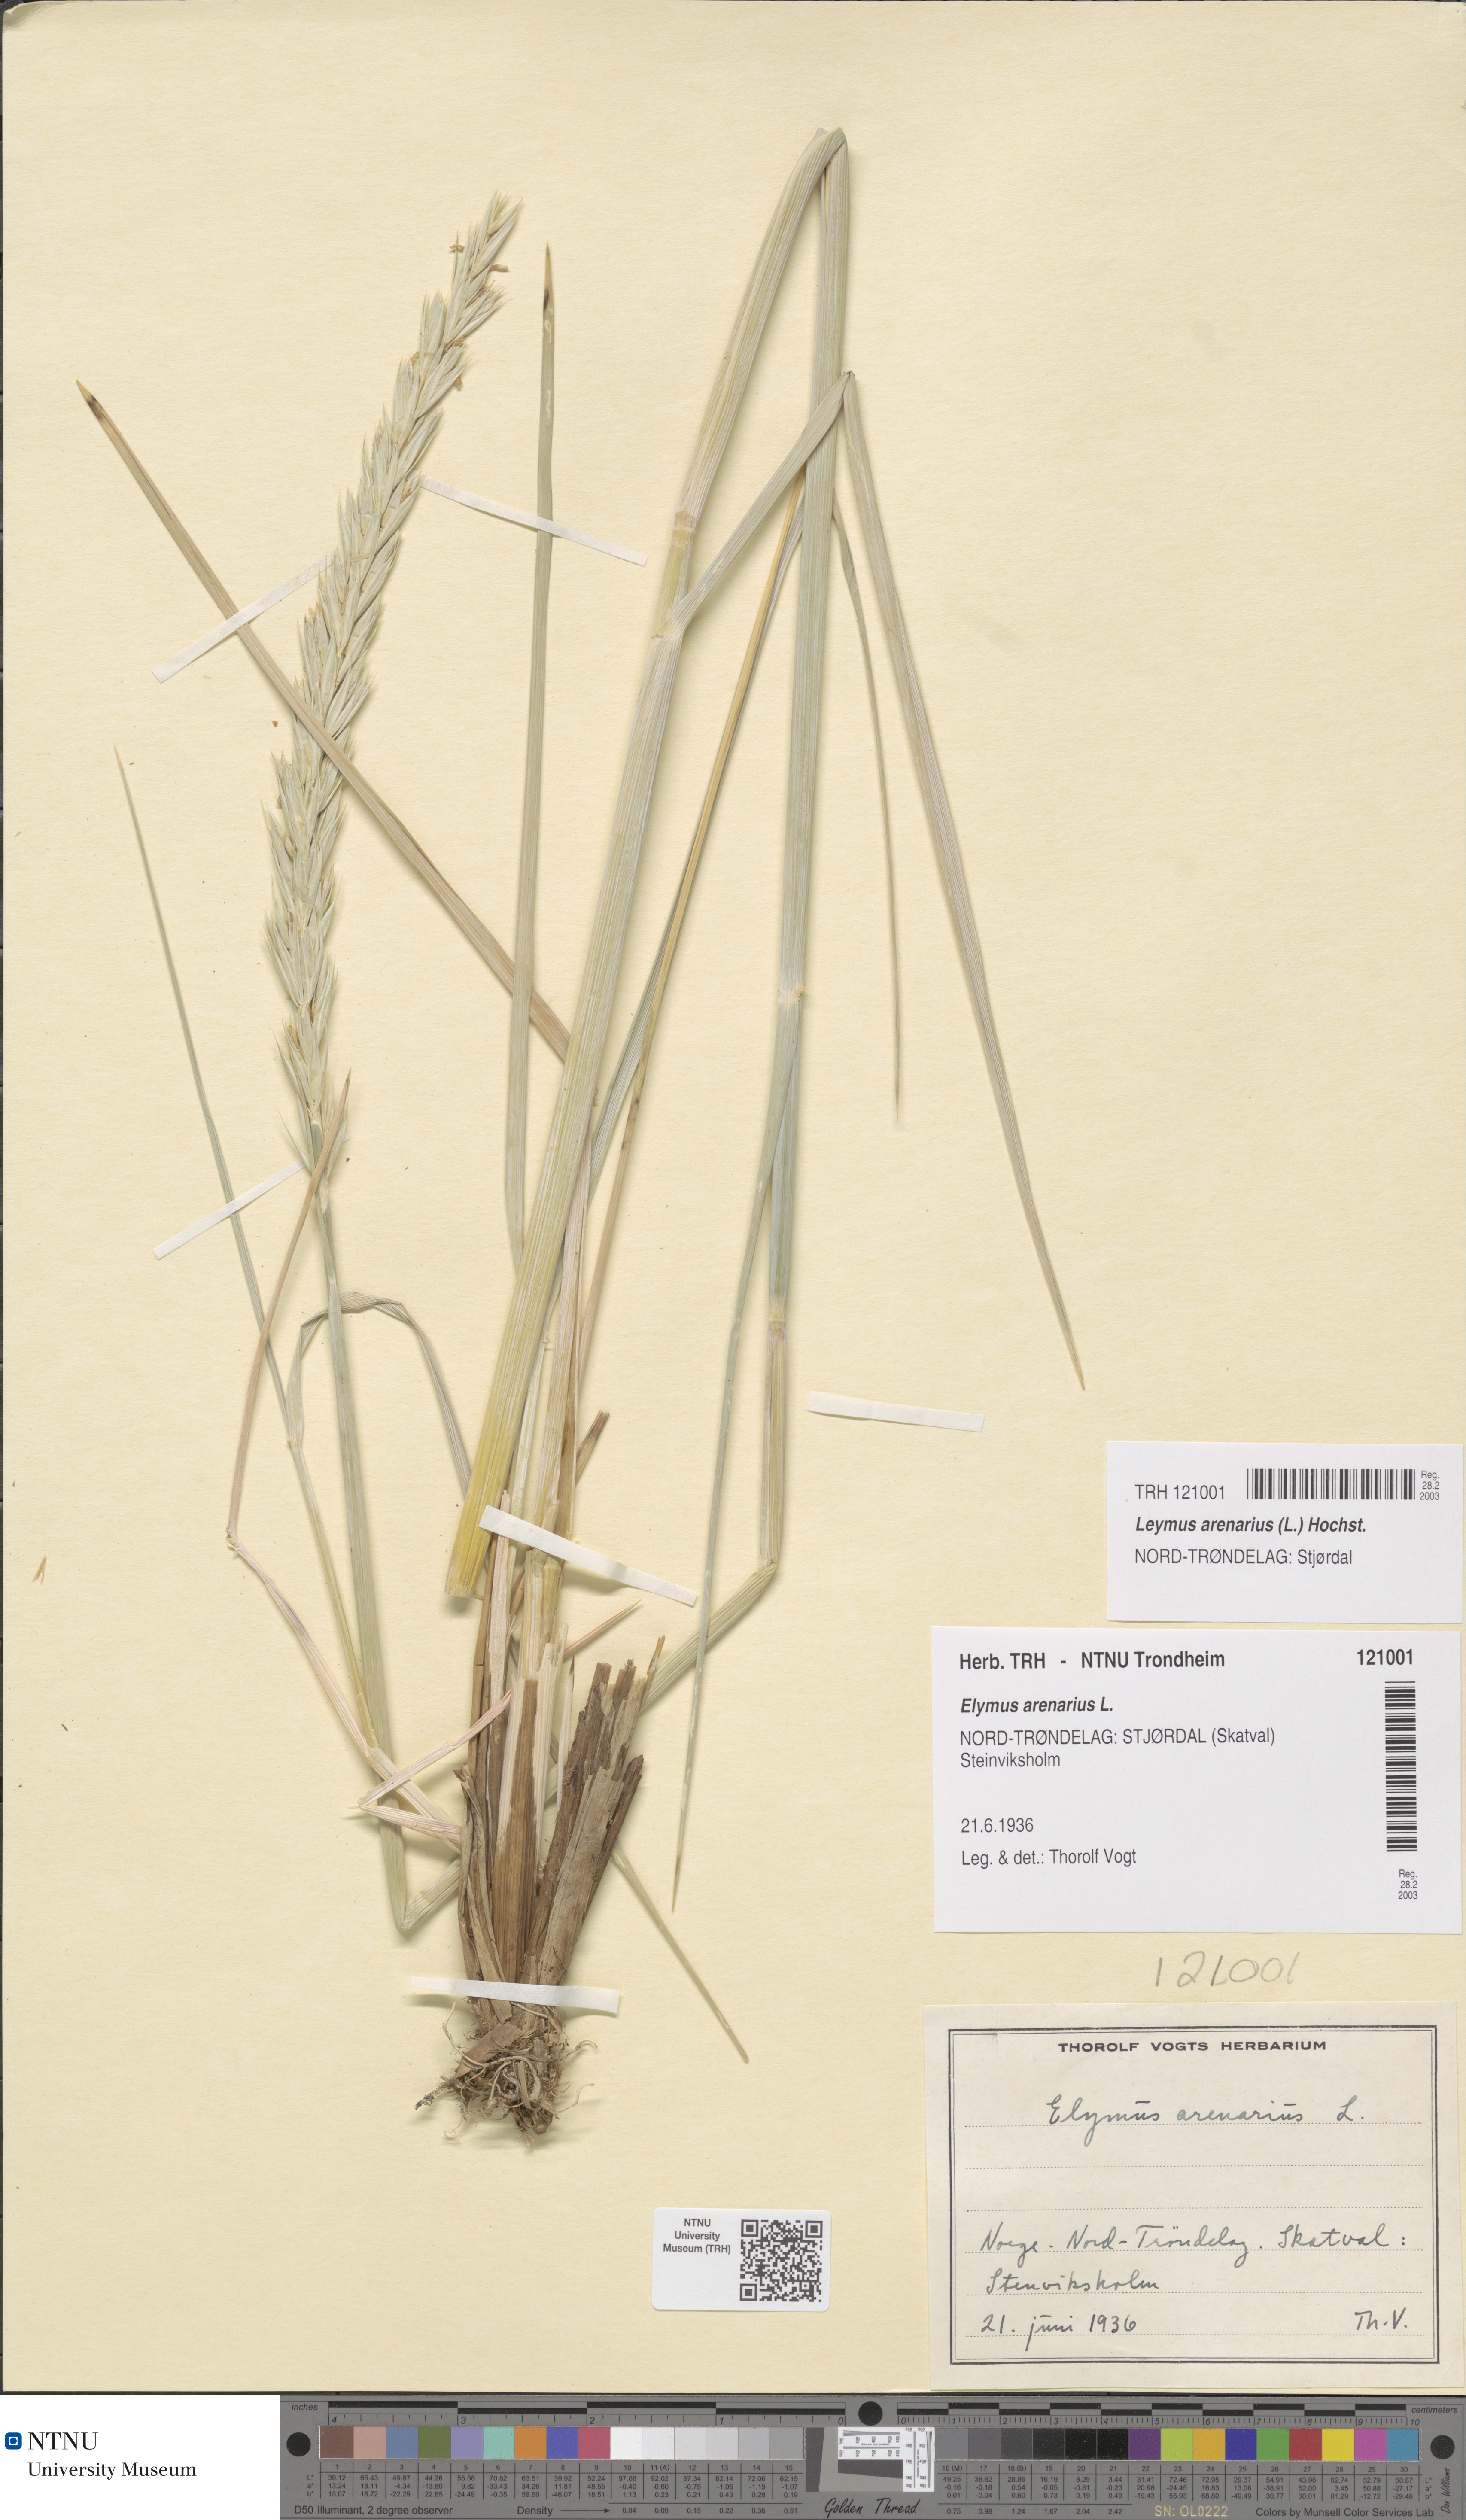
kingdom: Plantae
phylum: Tracheophyta
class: Liliopsida
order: Poales
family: Poaceae
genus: Leymus
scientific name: Leymus arenarius
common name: Lyme-grass
